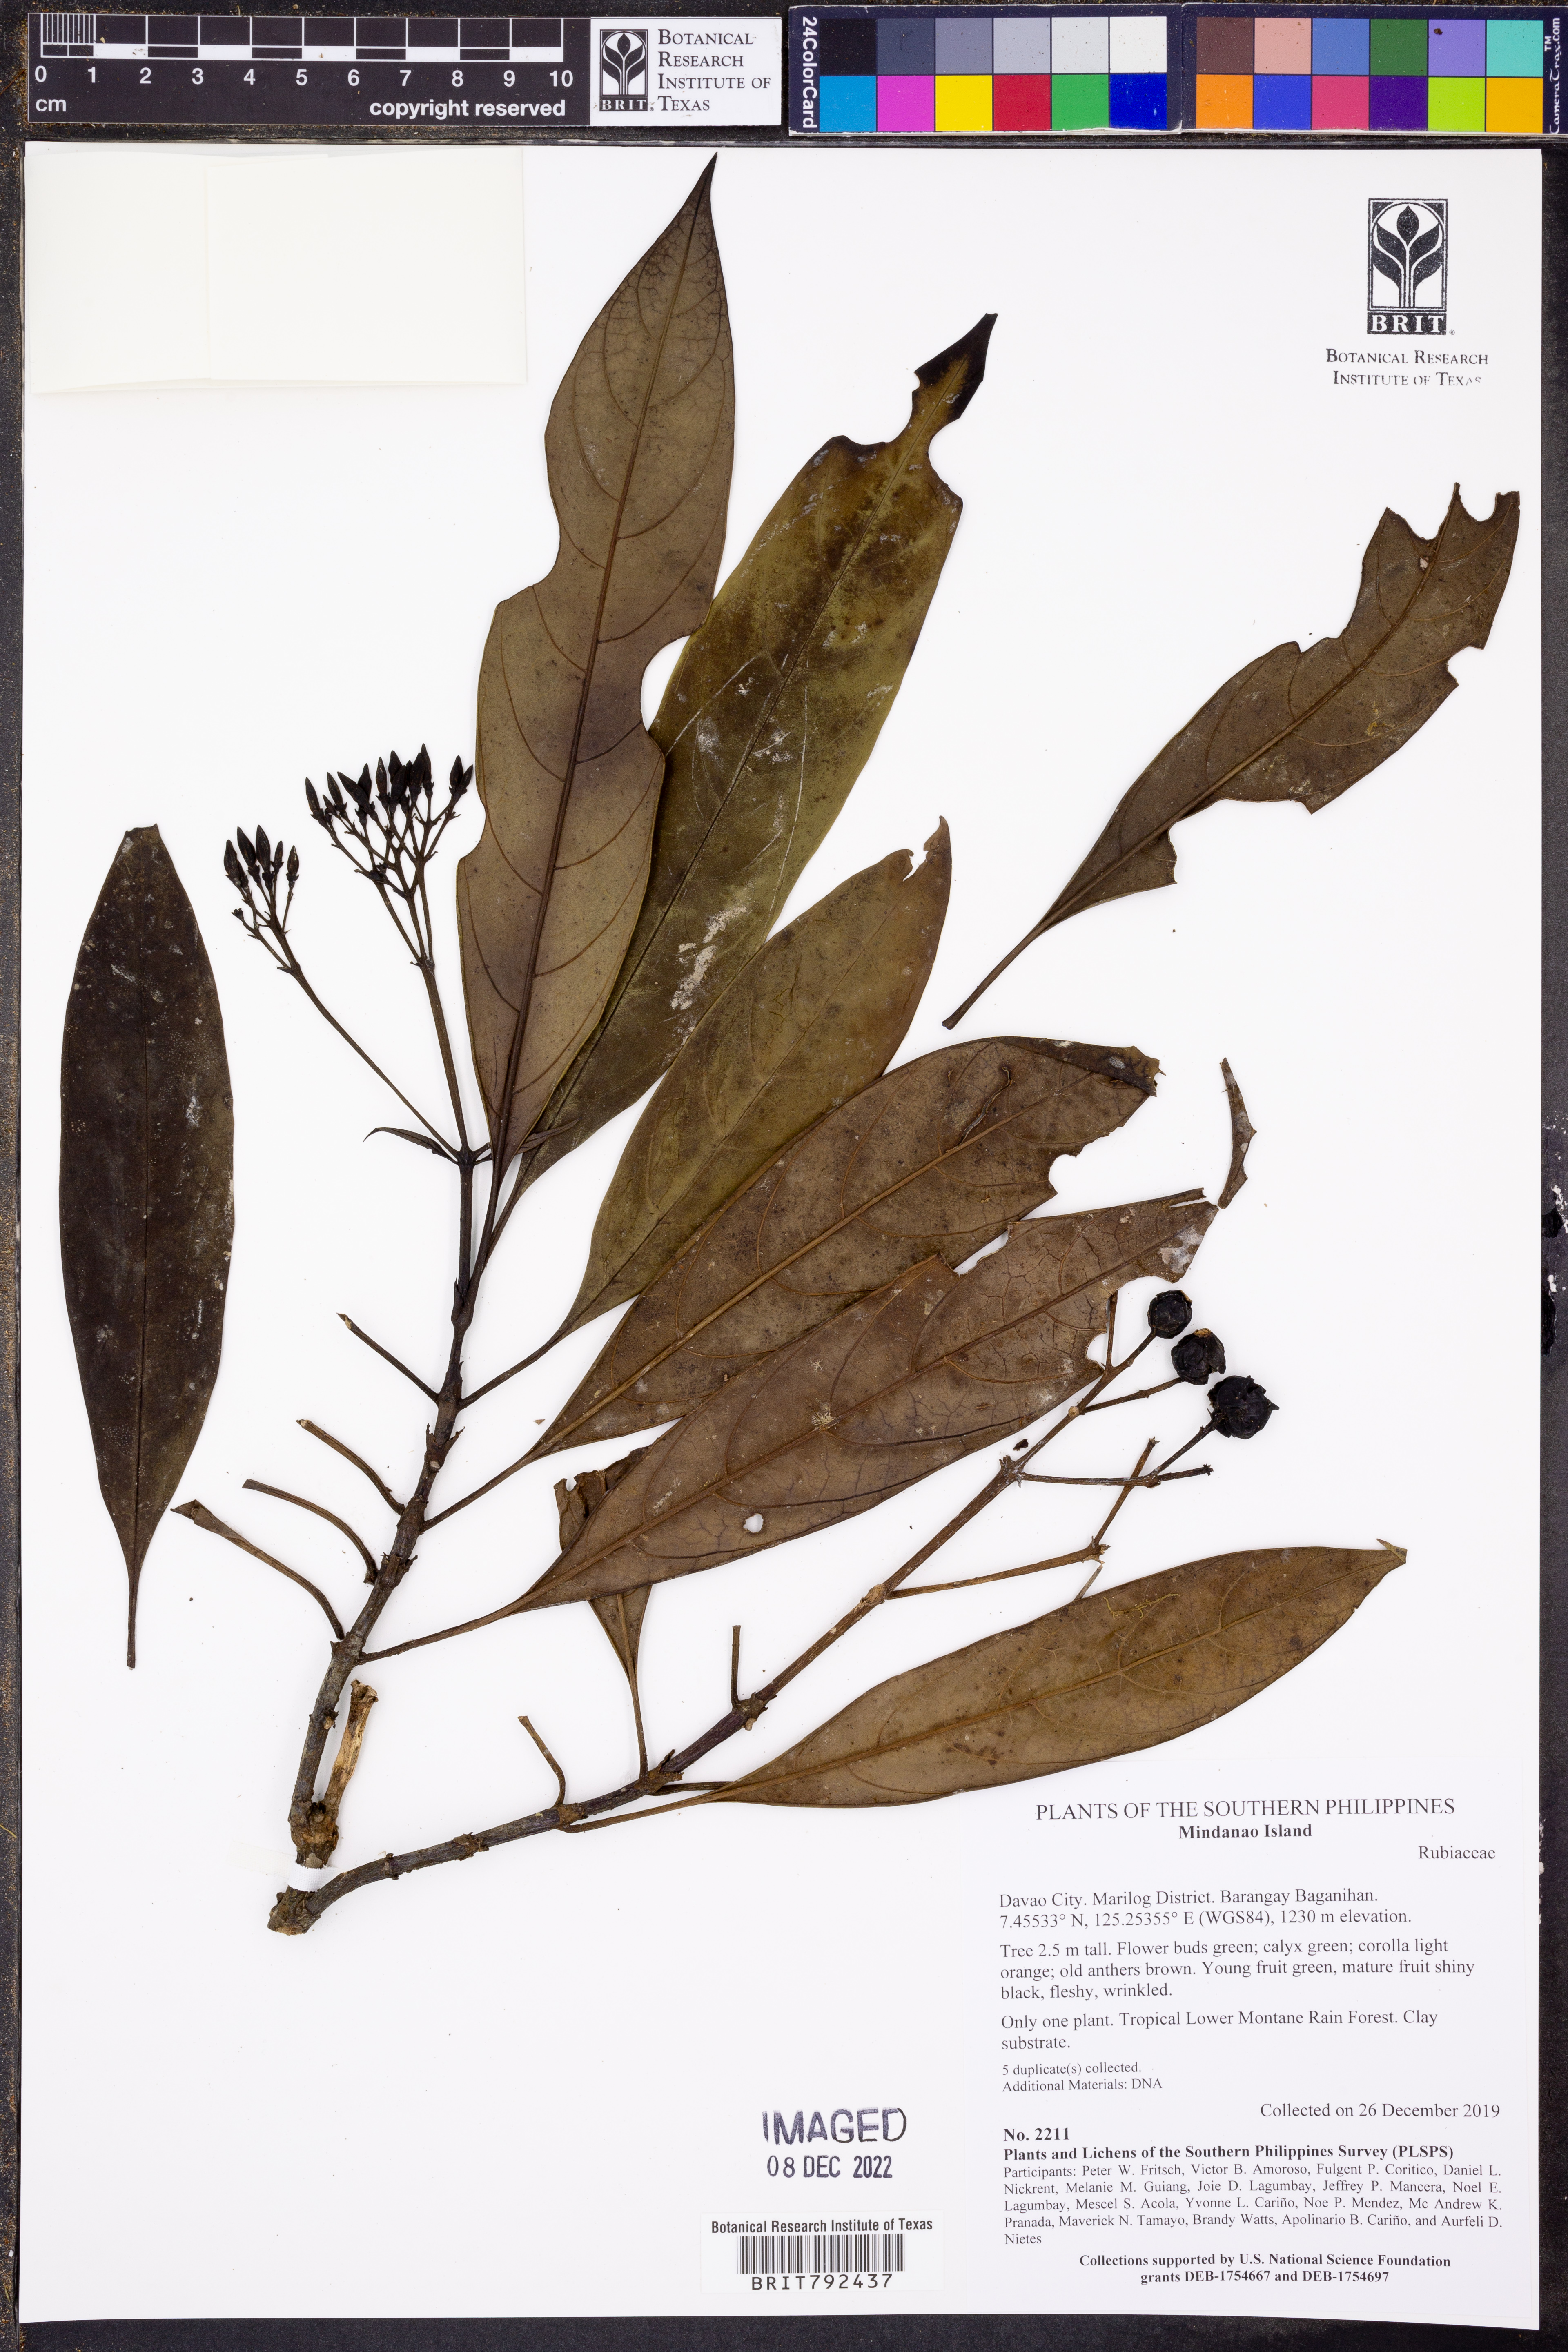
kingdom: Plantae
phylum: Tracheophyta
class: Magnoliopsida
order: Gentianales
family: Rubiaceae
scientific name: Rubiaceae
